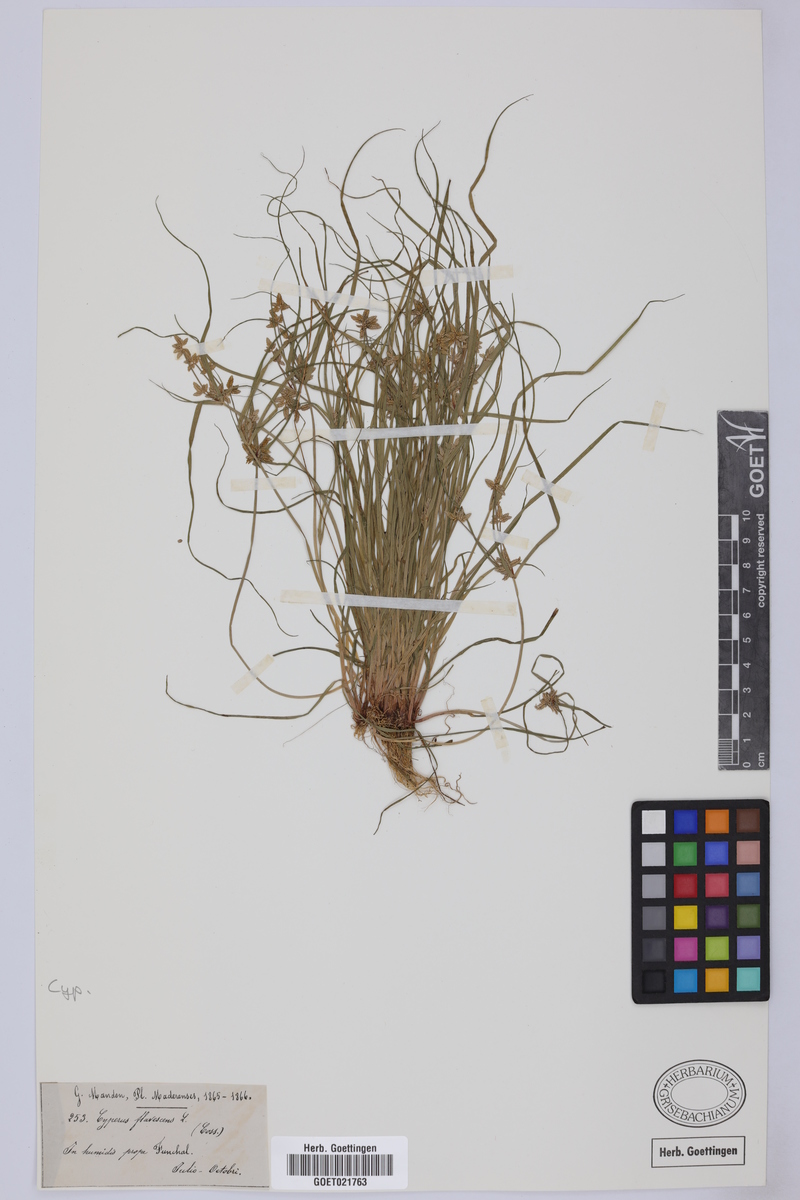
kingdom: Plantae
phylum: Tracheophyta
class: Liliopsida
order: Poales
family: Cyperaceae
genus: Cyperus
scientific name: Cyperus flavescens
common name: Yellow galingale
